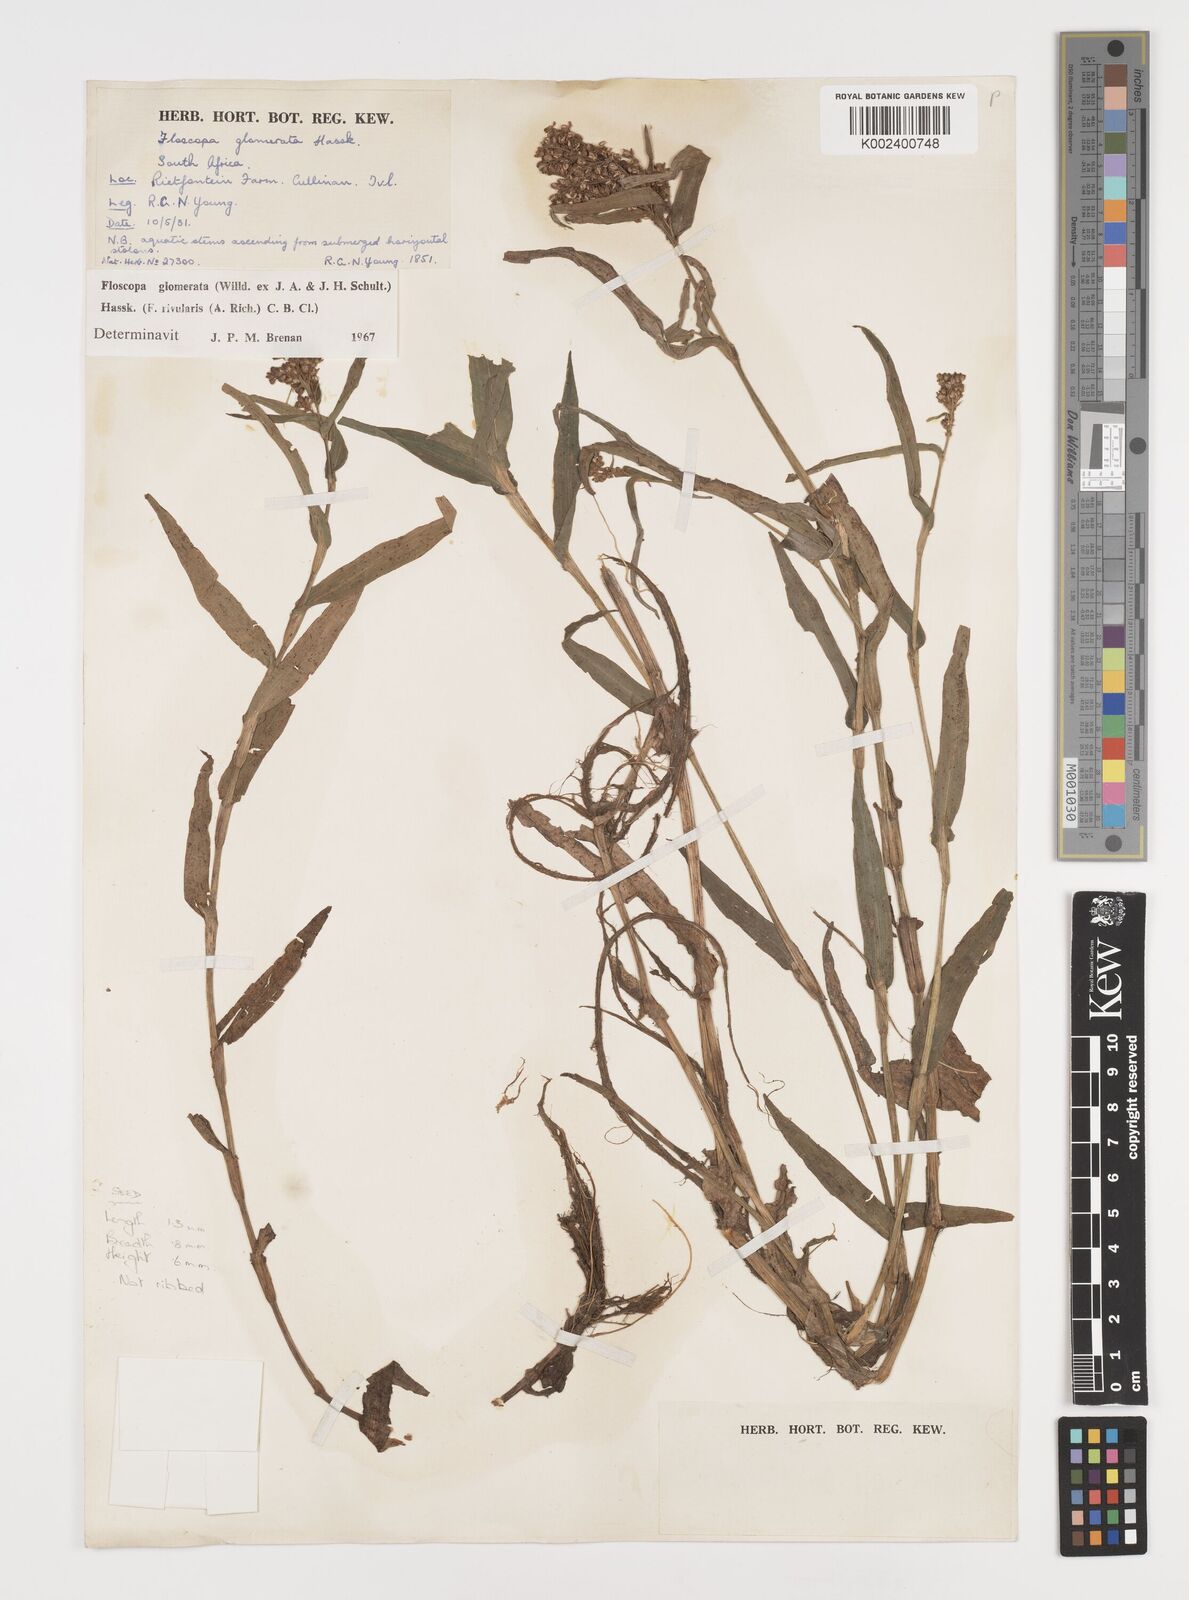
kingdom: Plantae
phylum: Tracheophyta
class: Liliopsida
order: Commelinales
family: Commelinaceae
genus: Floscopa
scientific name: Floscopa glomerata
